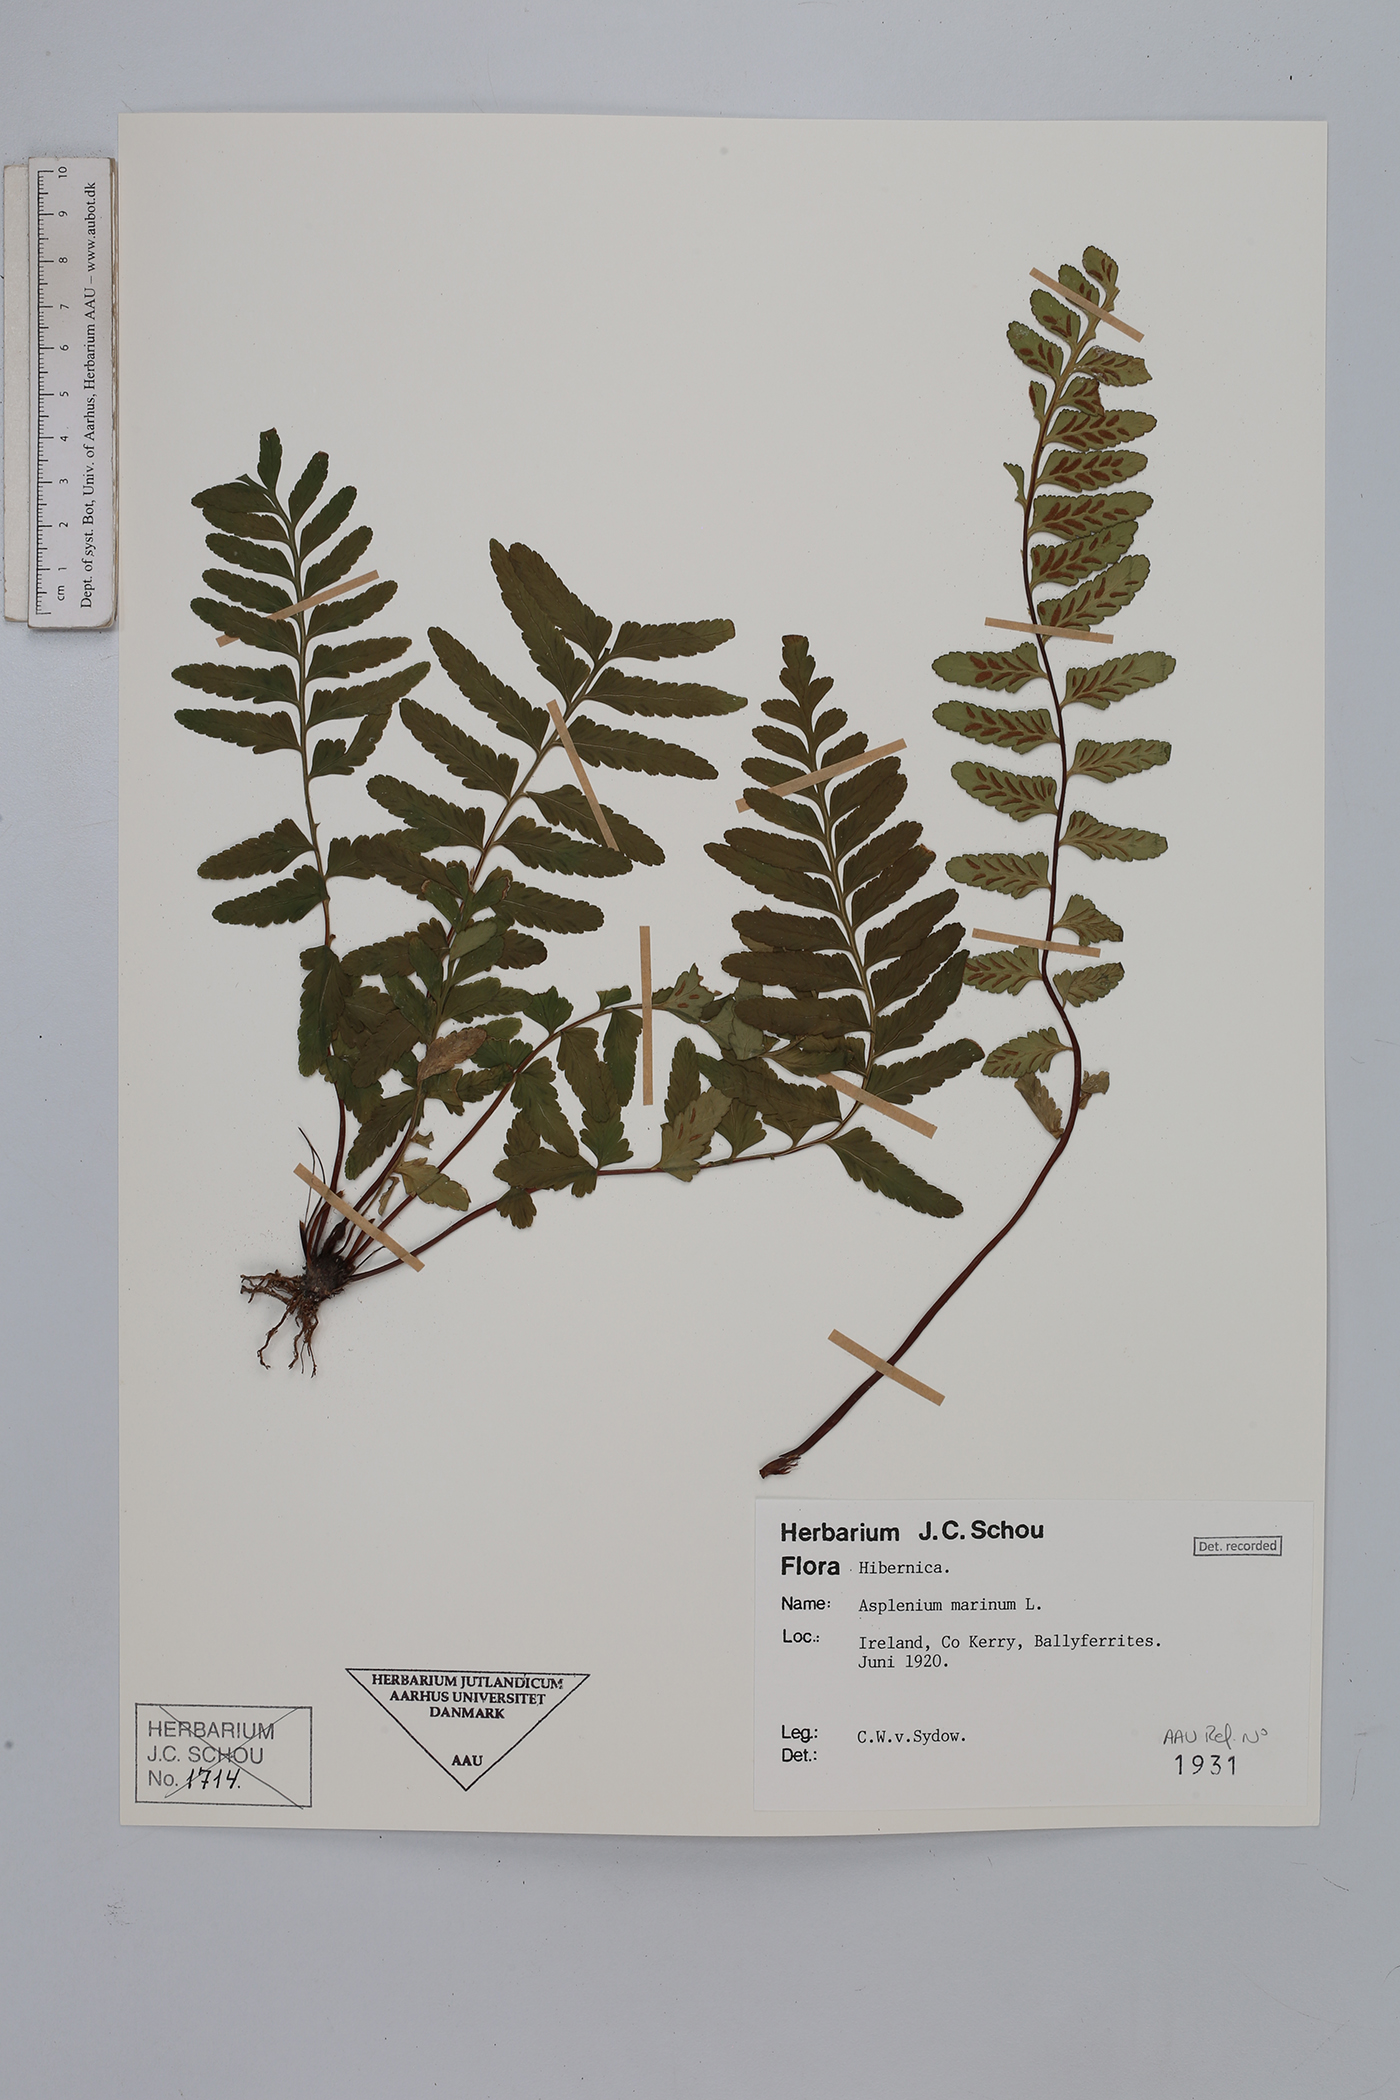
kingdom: Plantae
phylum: Tracheophyta
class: Polypodiopsida
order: Polypodiales
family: Aspleniaceae
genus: Asplenium
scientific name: Asplenium marinum
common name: Sea spleenwort
